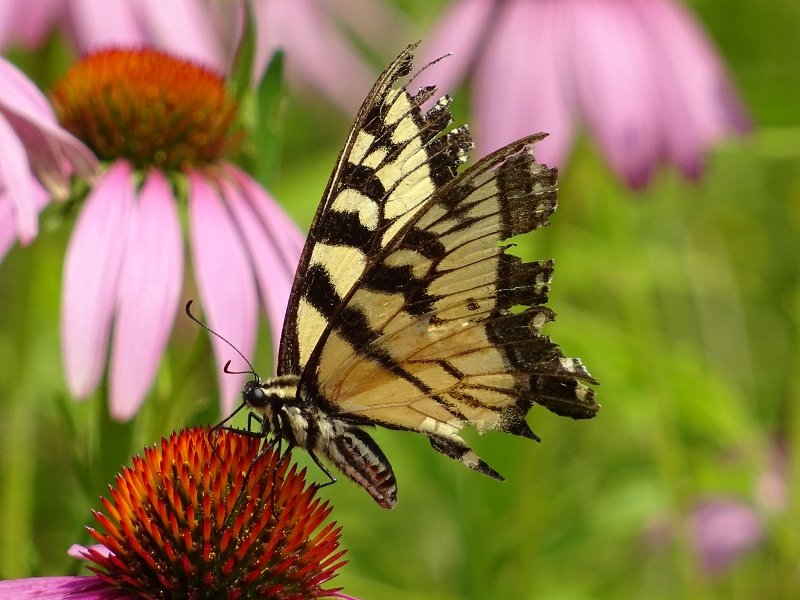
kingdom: Animalia
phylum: Arthropoda
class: Insecta
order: Lepidoptera
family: Papilionidae
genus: Pterourus
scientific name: Pterourus glaucus
